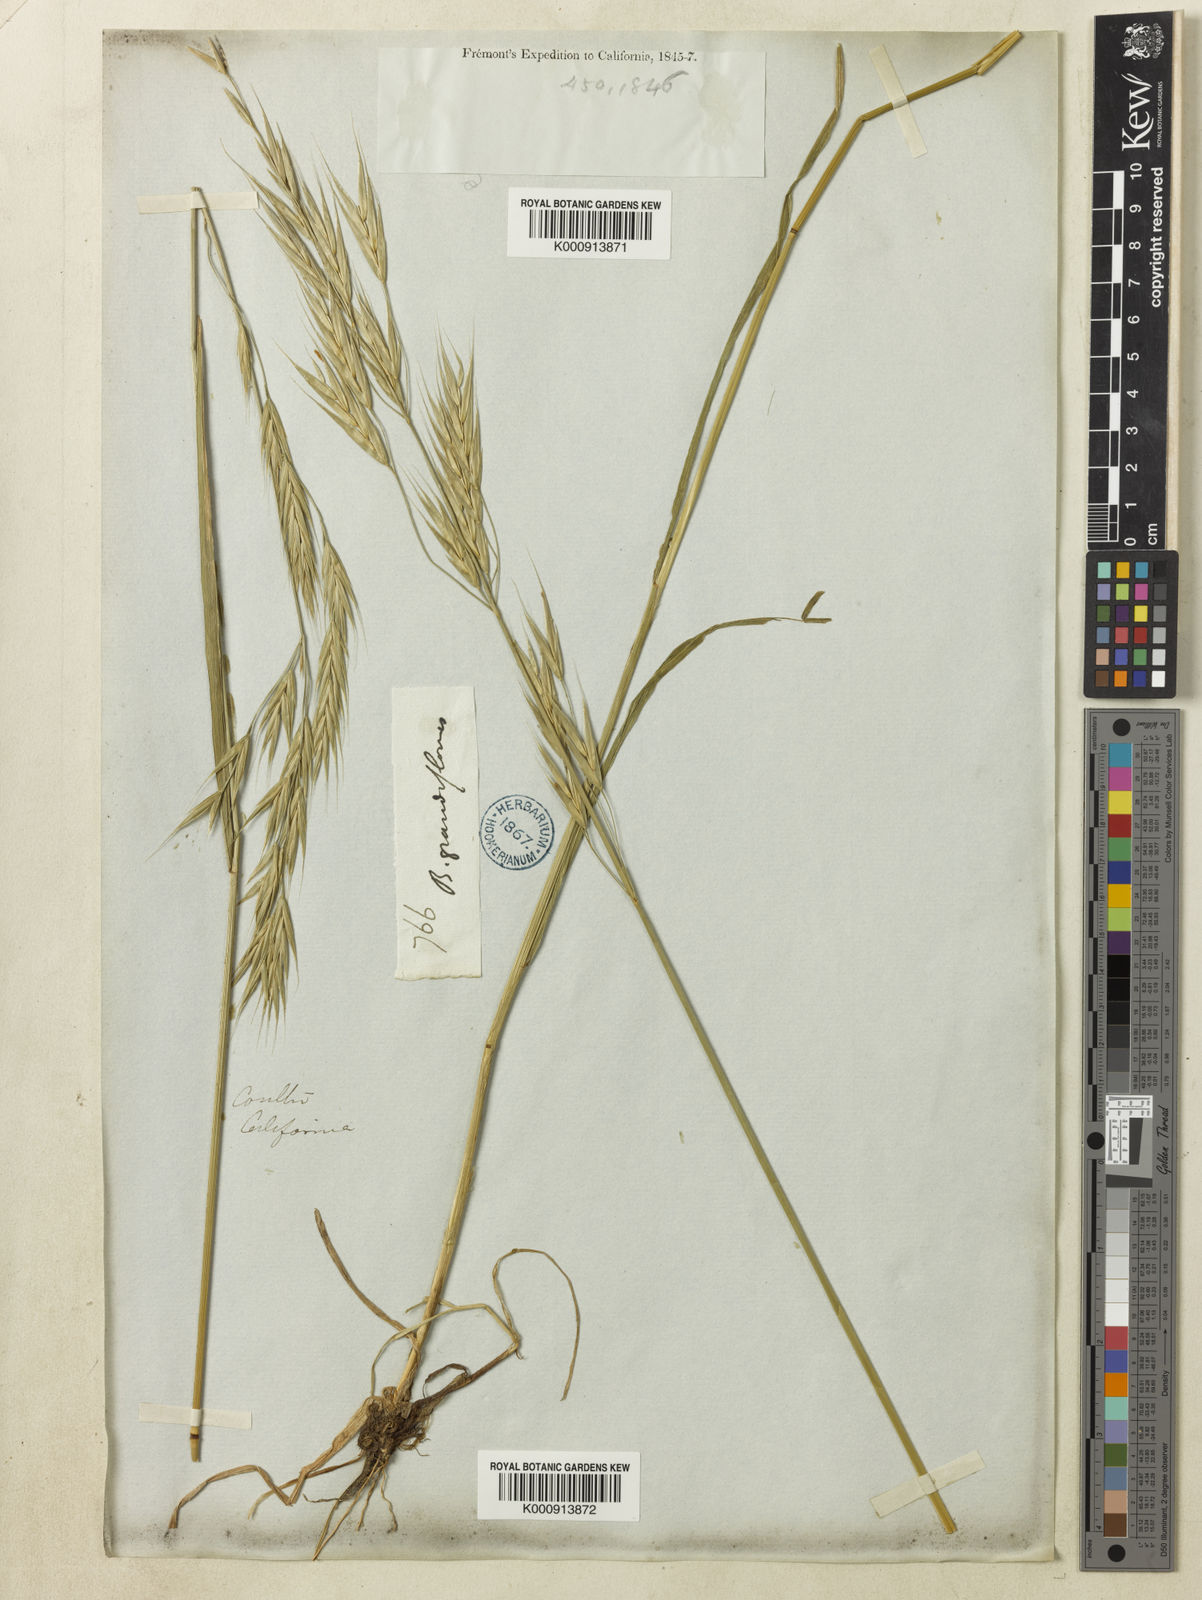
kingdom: Plantae
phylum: Tracheophyta
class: Liliopsida
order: Poales
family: Poaceae
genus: Bromus
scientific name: Bromus carinatus
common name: Mountain brome
